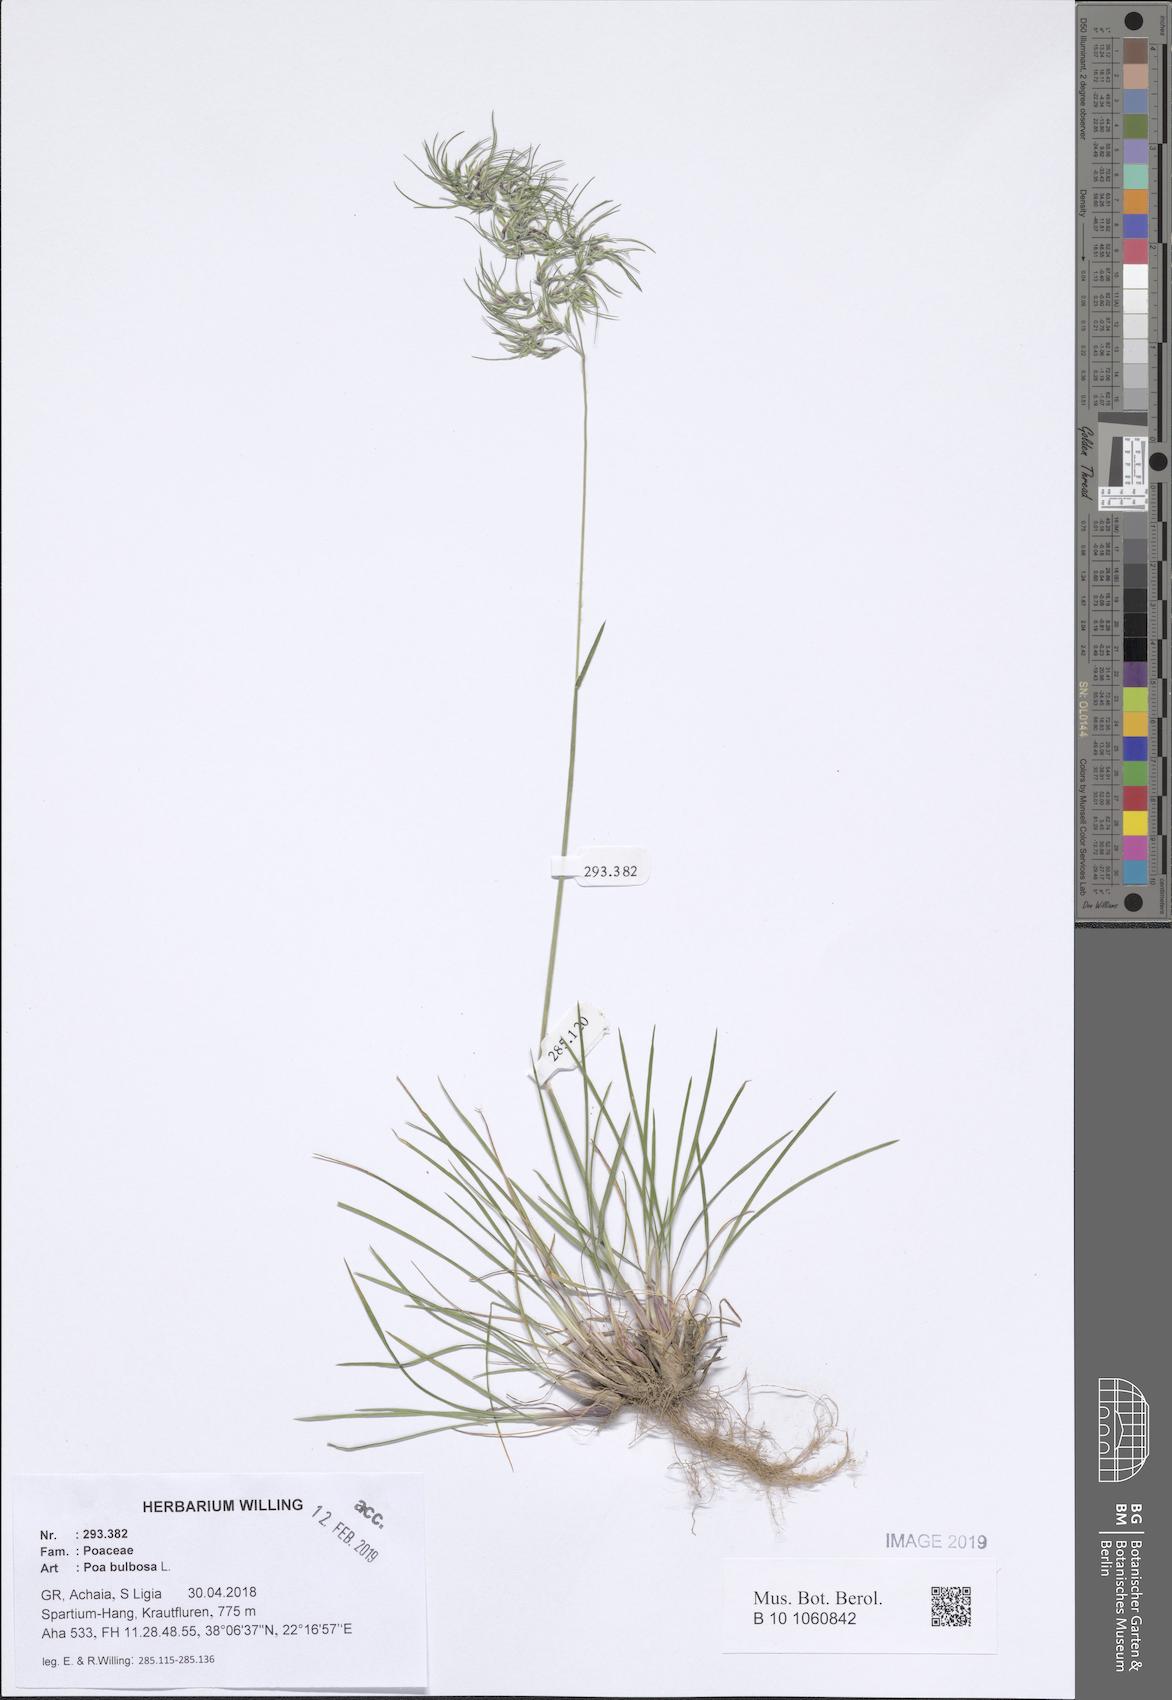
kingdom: Plantae
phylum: Tracheophyta
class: Liliopsida
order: Poales
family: Poaceae
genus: Poa
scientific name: Poa bulbosa
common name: Bulbous bluegrass
